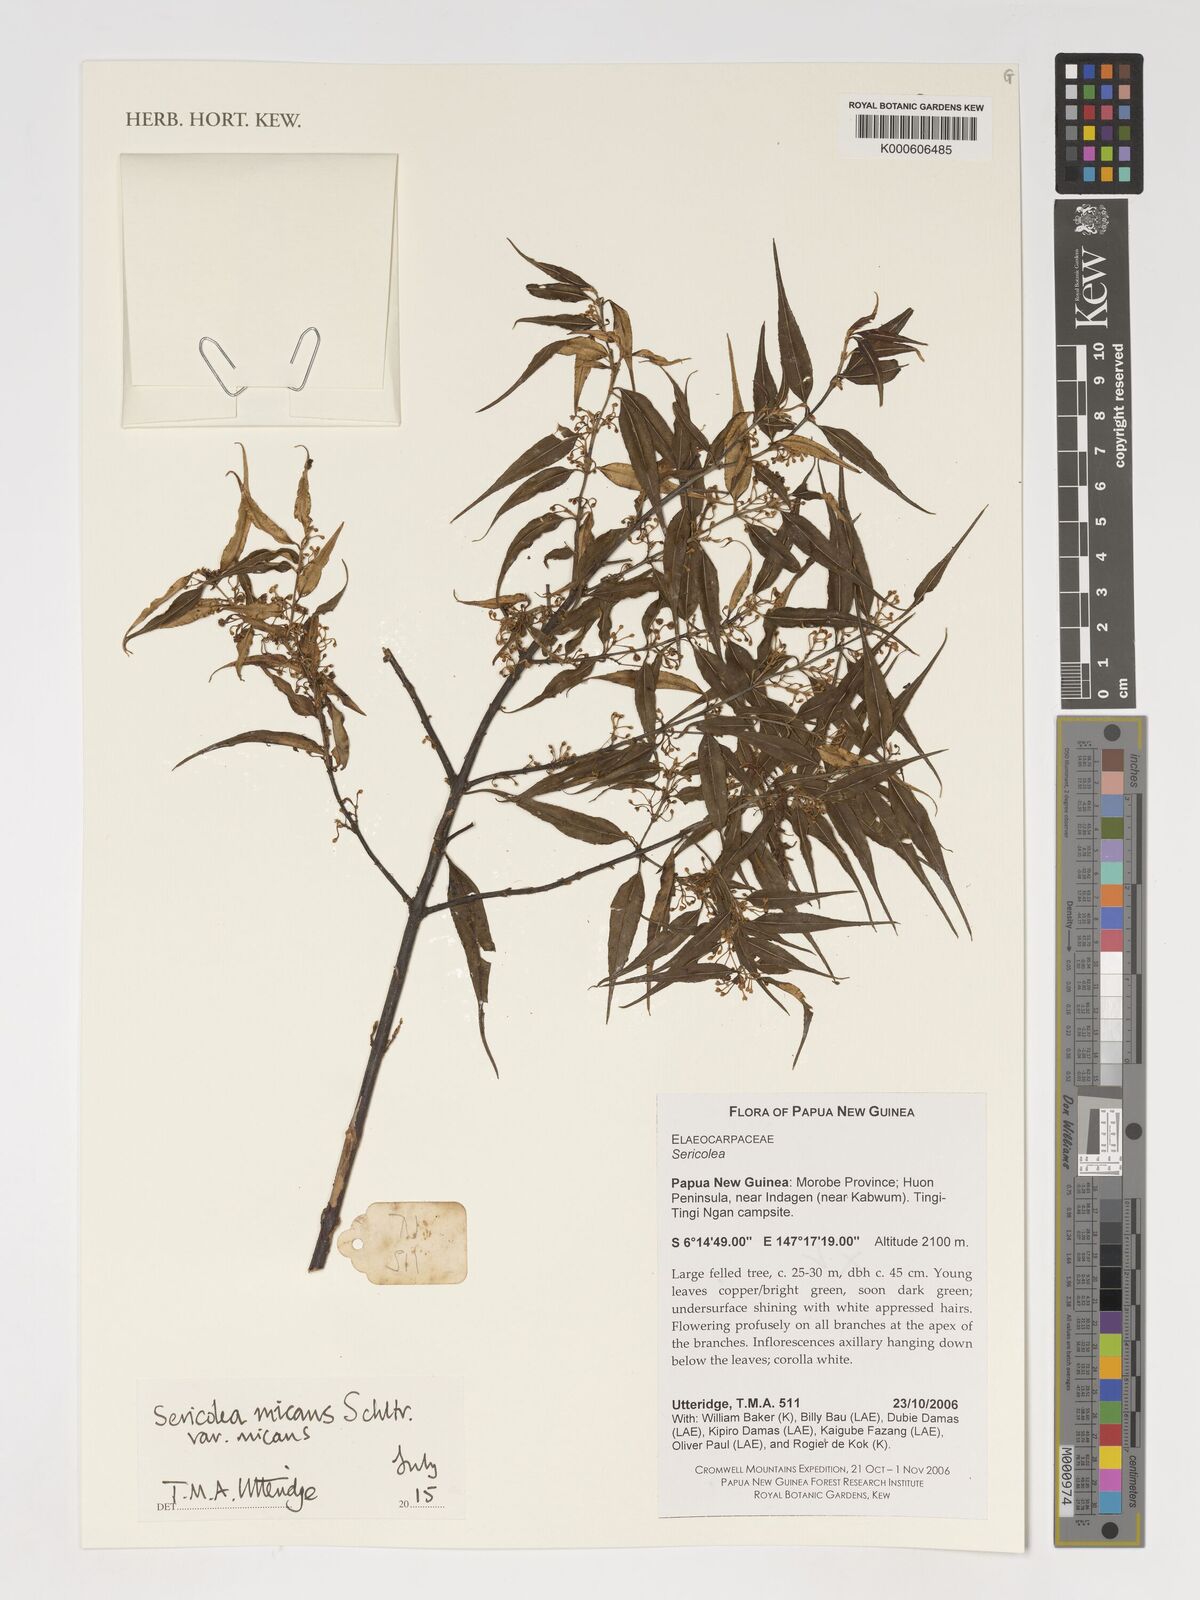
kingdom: Plantae
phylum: Tracheophyta
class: Magnoliopsida
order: Oxalidales
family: Elaeocarpaceae
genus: Sericolea
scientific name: Sericolea micans
